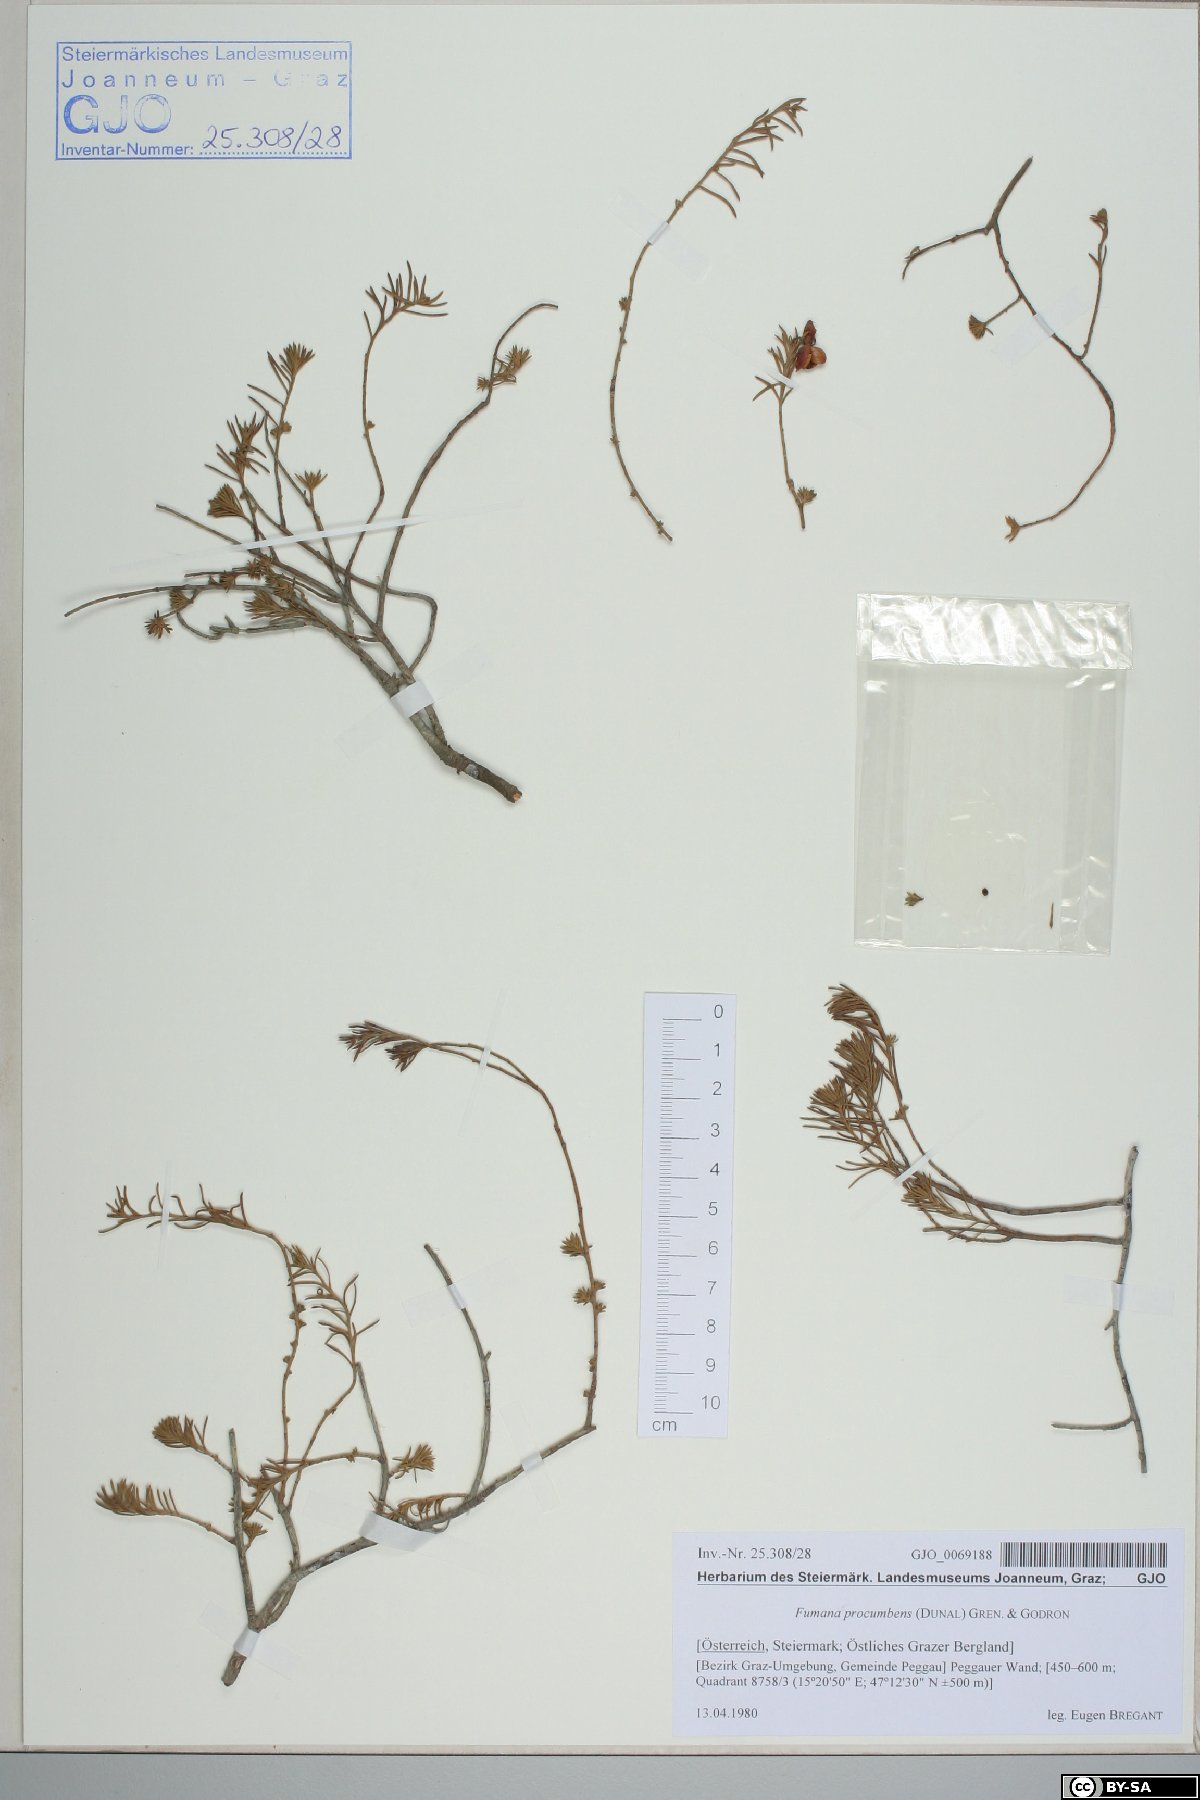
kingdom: Plantae
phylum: Tracheophyta
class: Magnoliopsida
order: Malvales
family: Cistaceae
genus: Fumana
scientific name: Fumana procumbens
